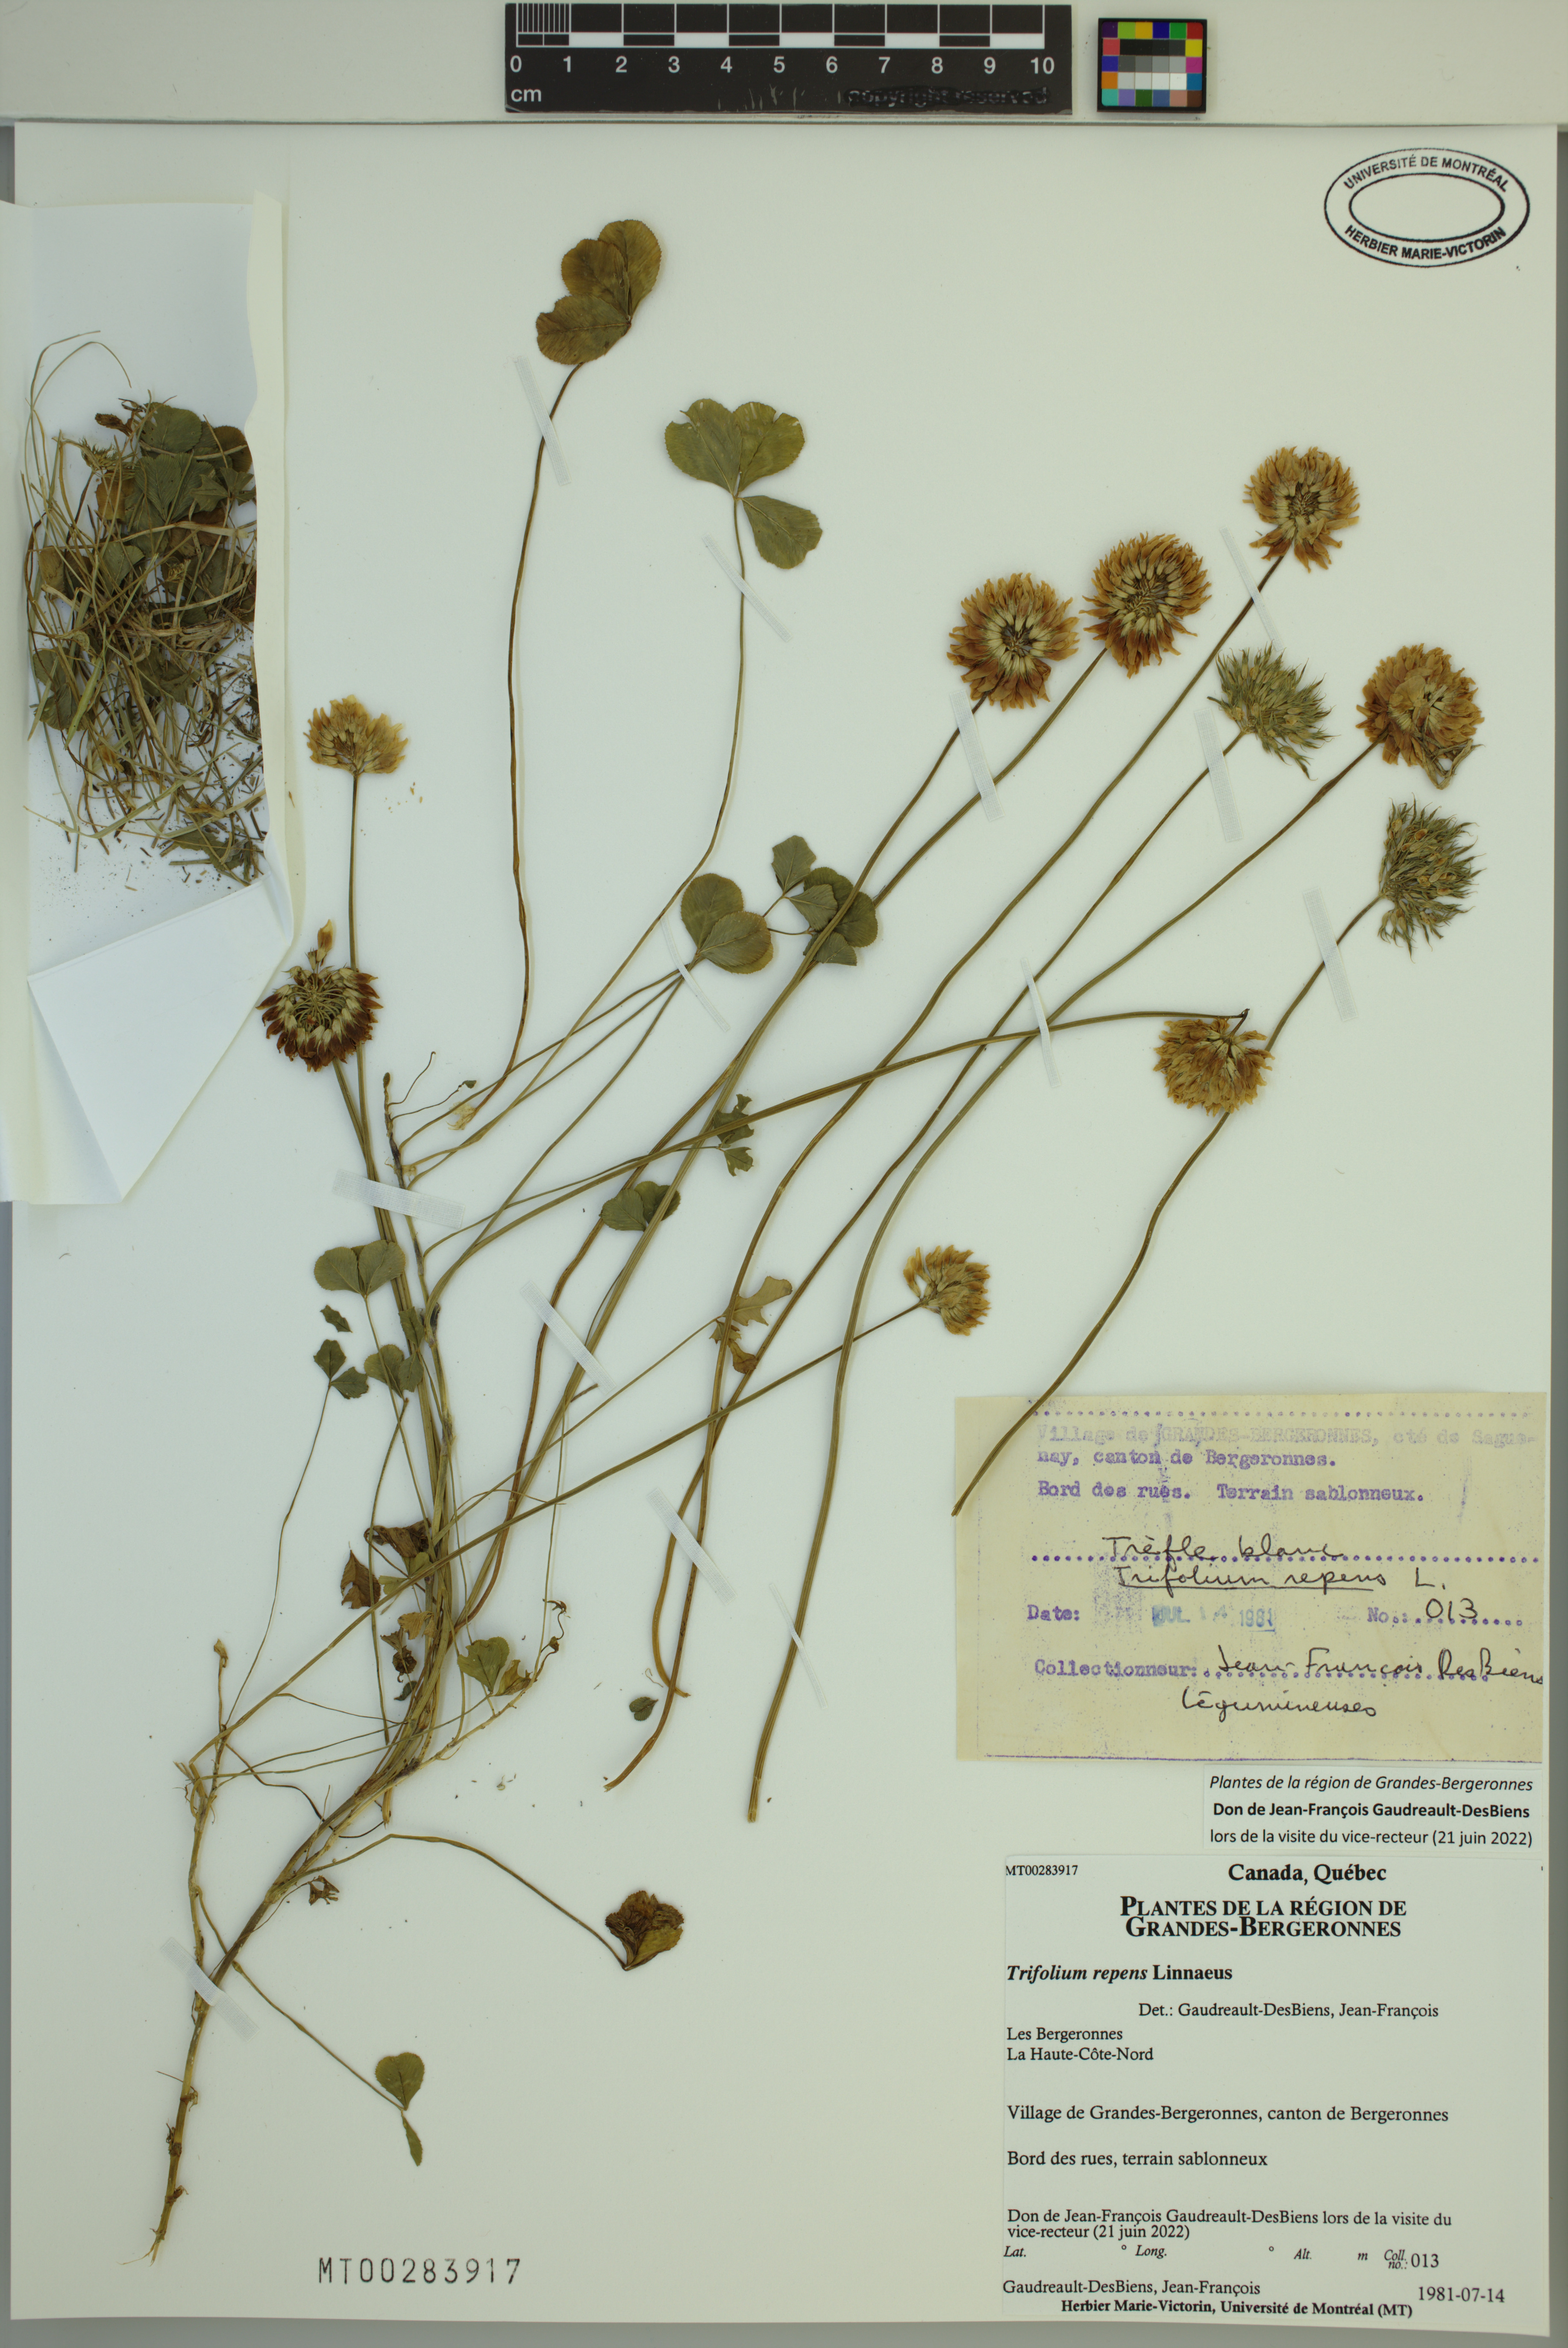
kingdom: Plantae
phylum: Tracheophyta
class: Magnoliopsida
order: Fabales
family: Fabaceae
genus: Trifolium
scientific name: Trifolium repens
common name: White clover
